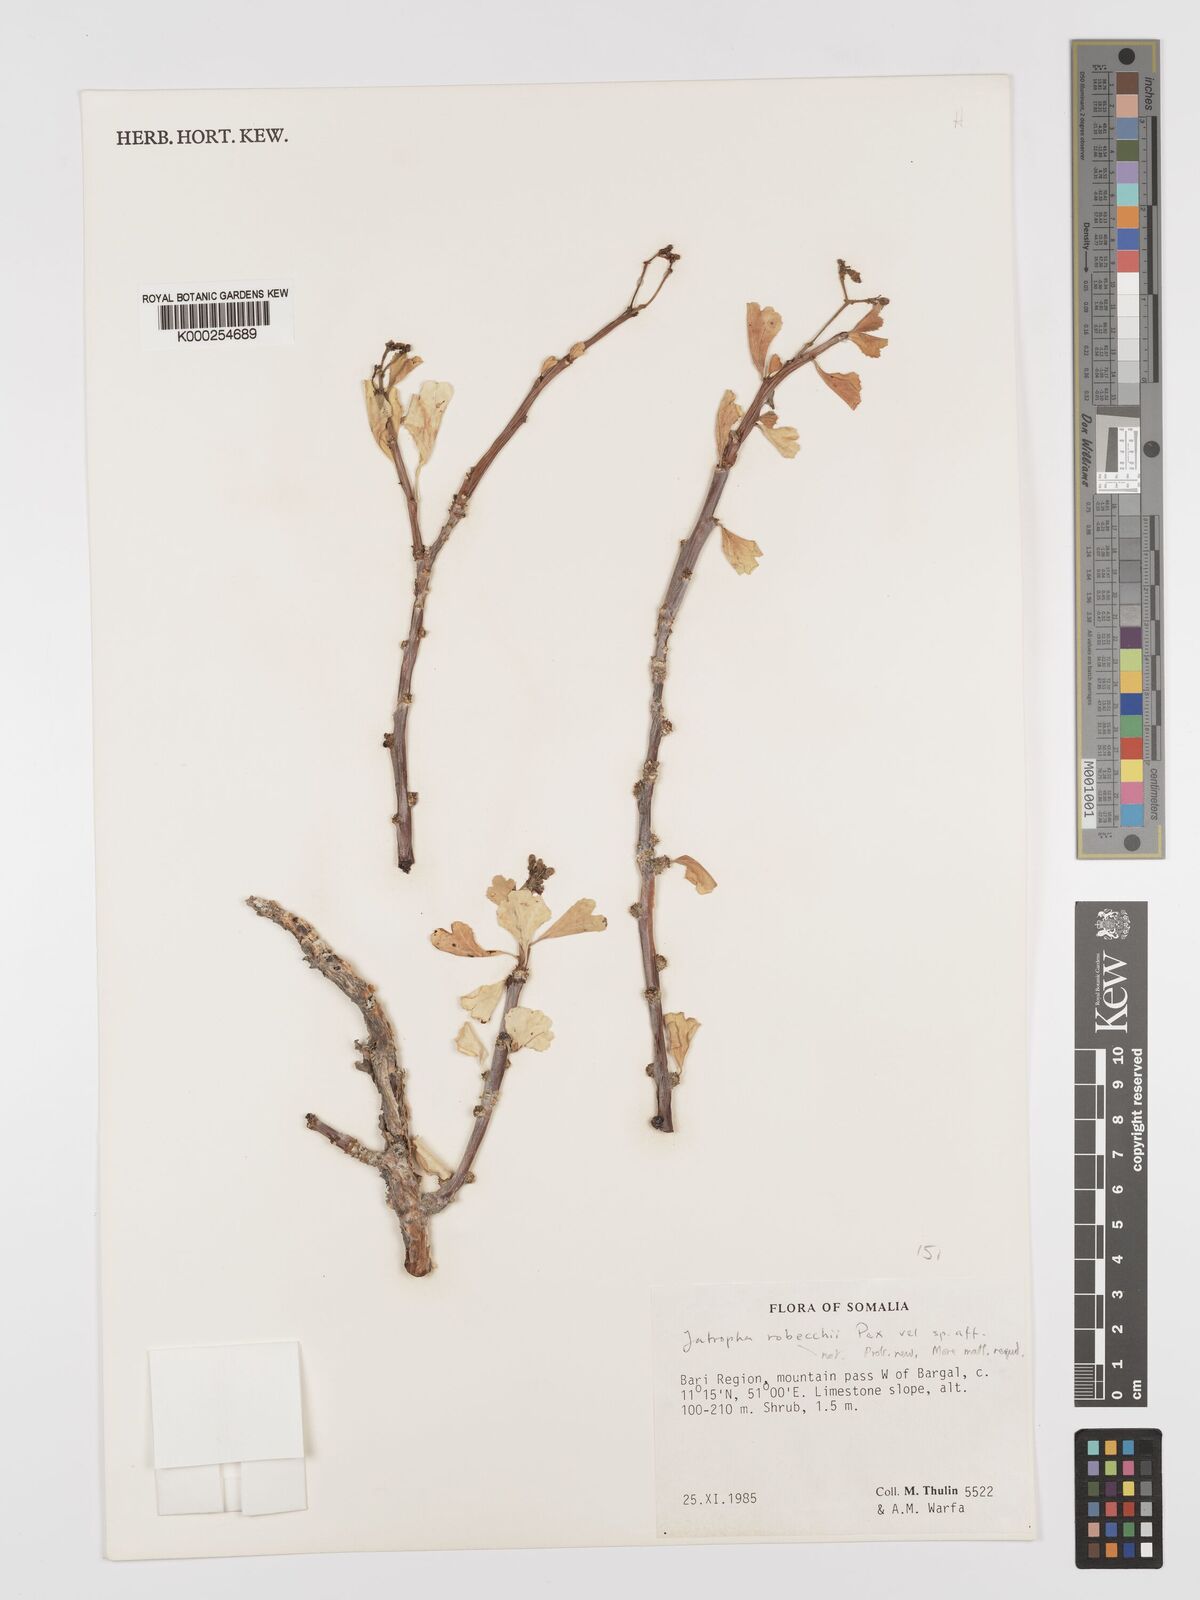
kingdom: Plantae
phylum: Tracheophyta
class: Magnoliopsida
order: Malpighiales
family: Euphorbiaceae
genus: Jatropha
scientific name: Jatropha robecchii
